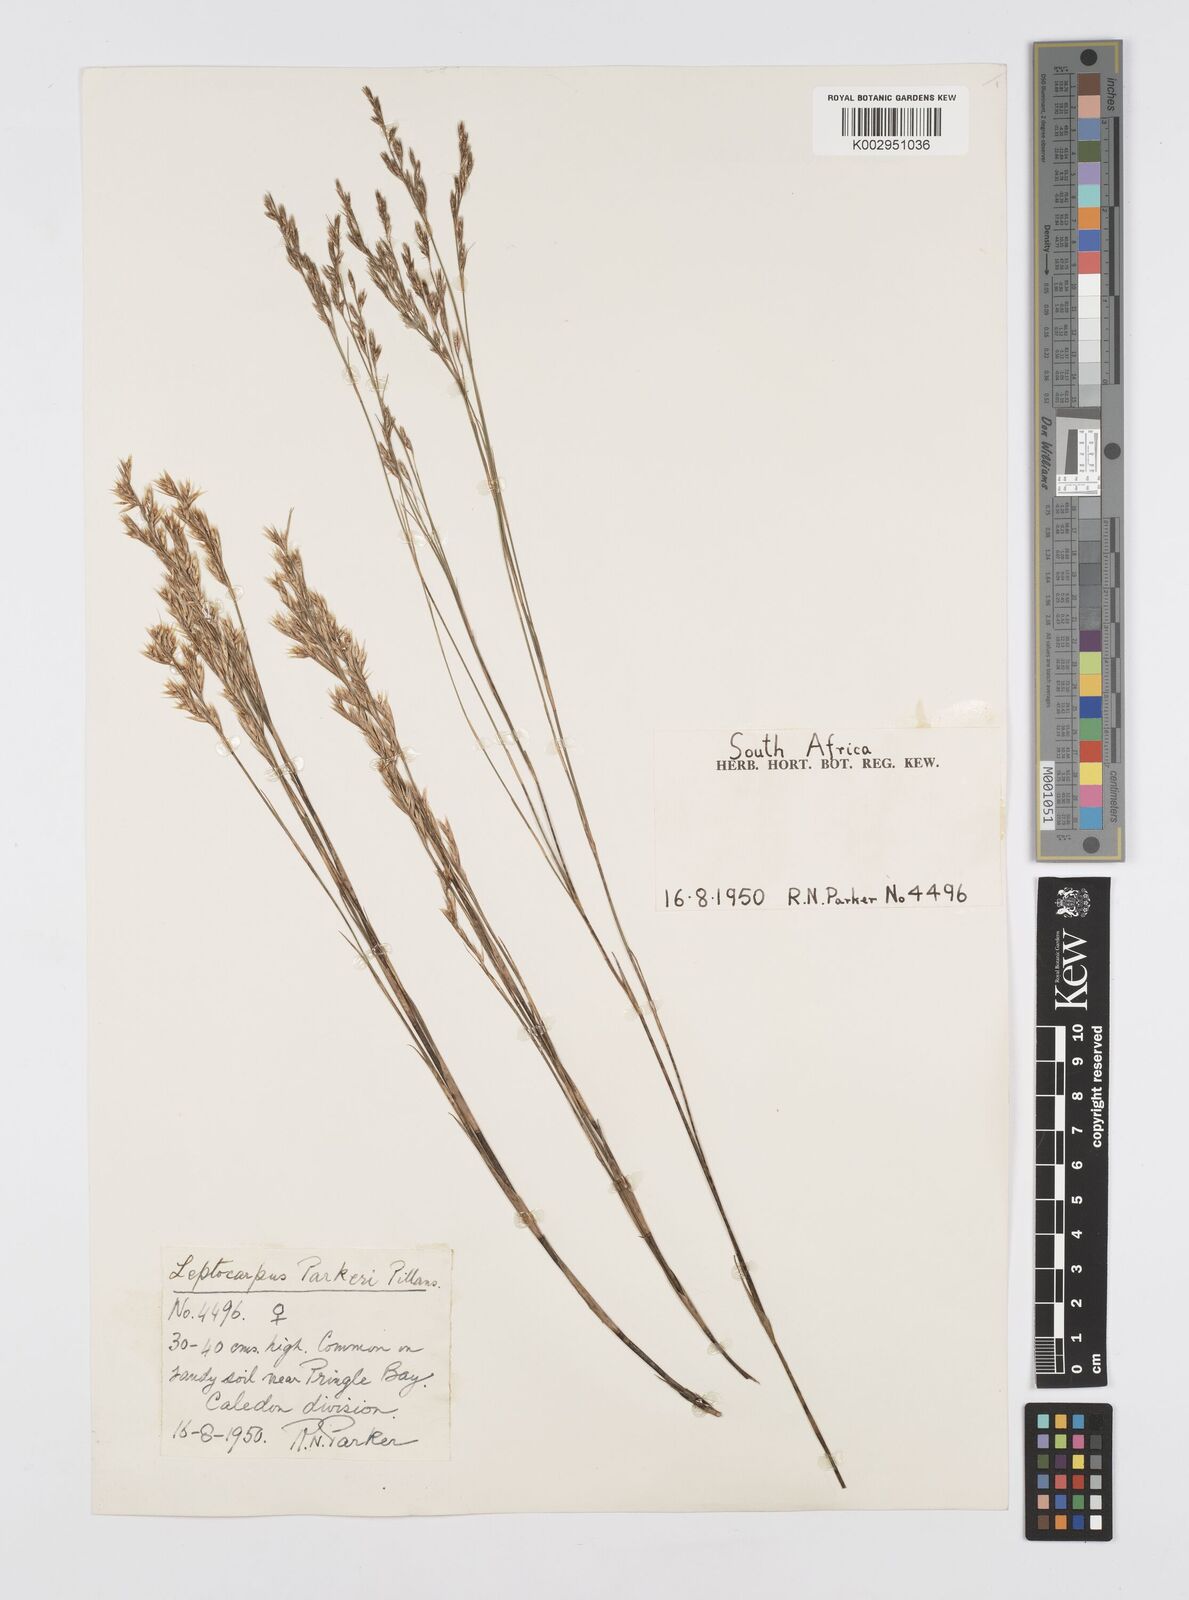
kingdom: Plantae
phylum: Tracheophyta
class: Liliopsida
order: Poales
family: Restionaceae
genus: Restio
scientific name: Restio festuciformis
